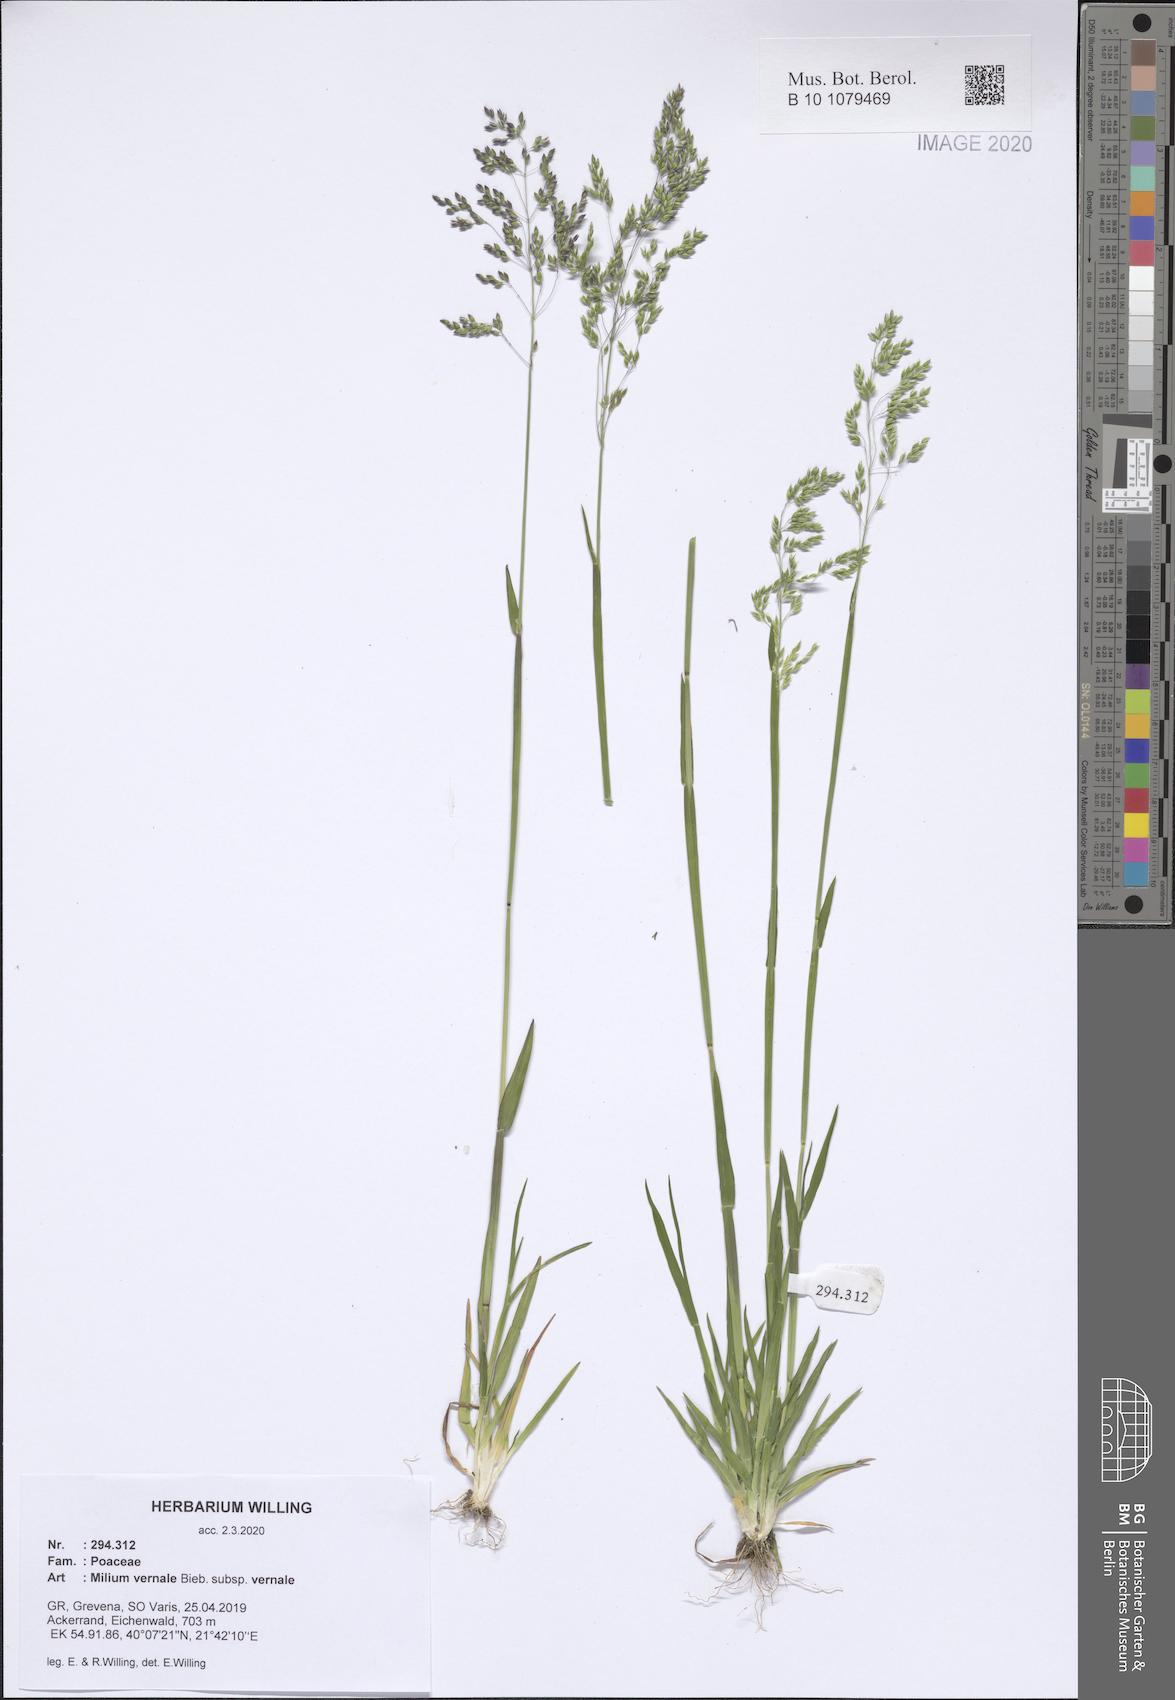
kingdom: Plantae
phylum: Tracheophyta
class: Liliopsida
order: Poales
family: Poaceae
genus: Milium
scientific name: Milium vernale
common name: Early millet
